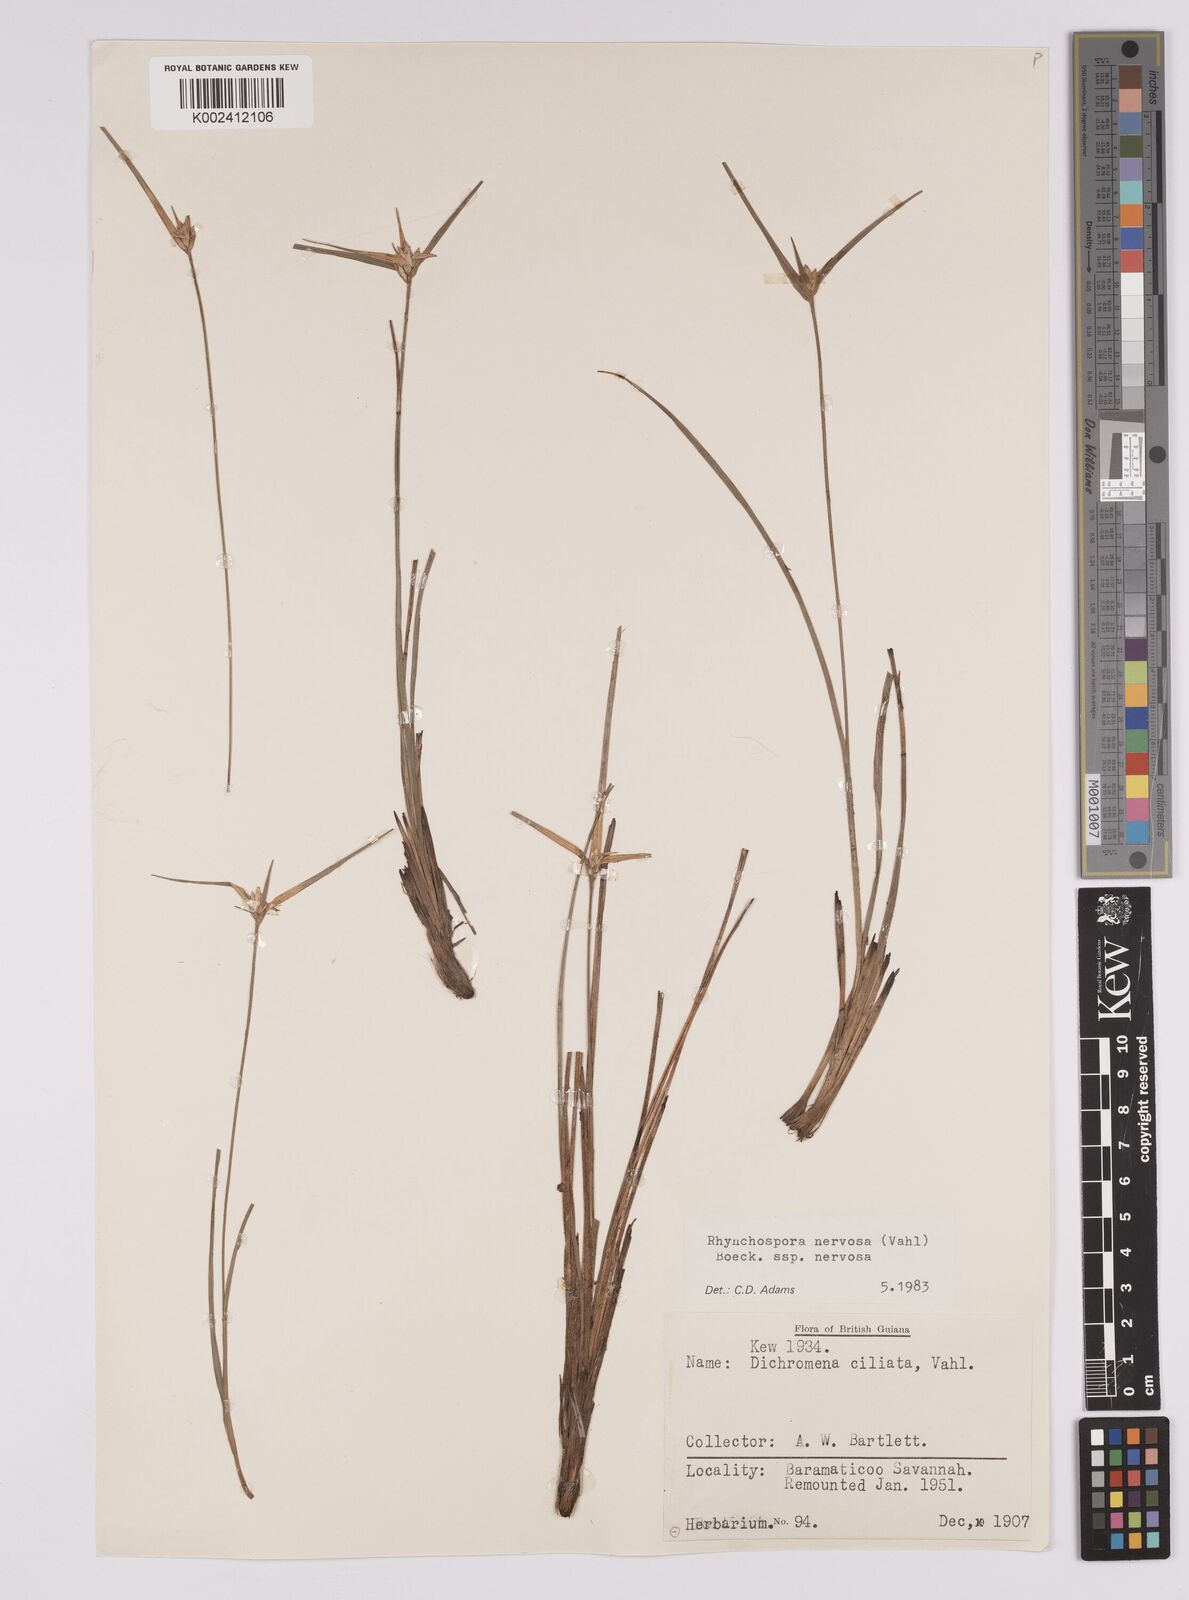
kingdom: Plantae
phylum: Tracheophyta
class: Liliopsida
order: Poales
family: Cyperaceae
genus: Rhynchospora
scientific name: Rhynchospora nervosa
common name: Star sedge
